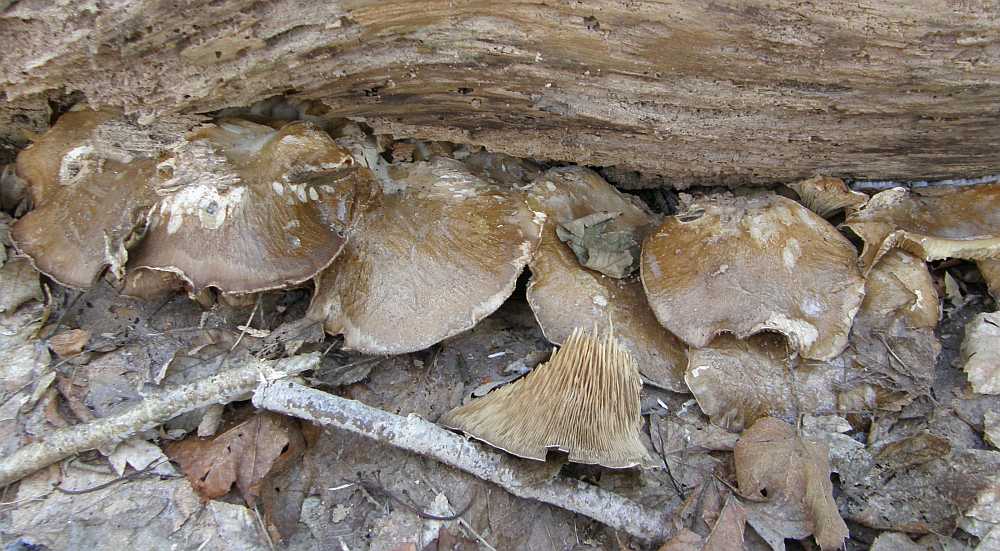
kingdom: Fungi
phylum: Basidiomycota
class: Agaricomycetes
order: Agaricales
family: Pleurotaceae
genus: Pleurotus
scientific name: Pleurotus ostreatus
